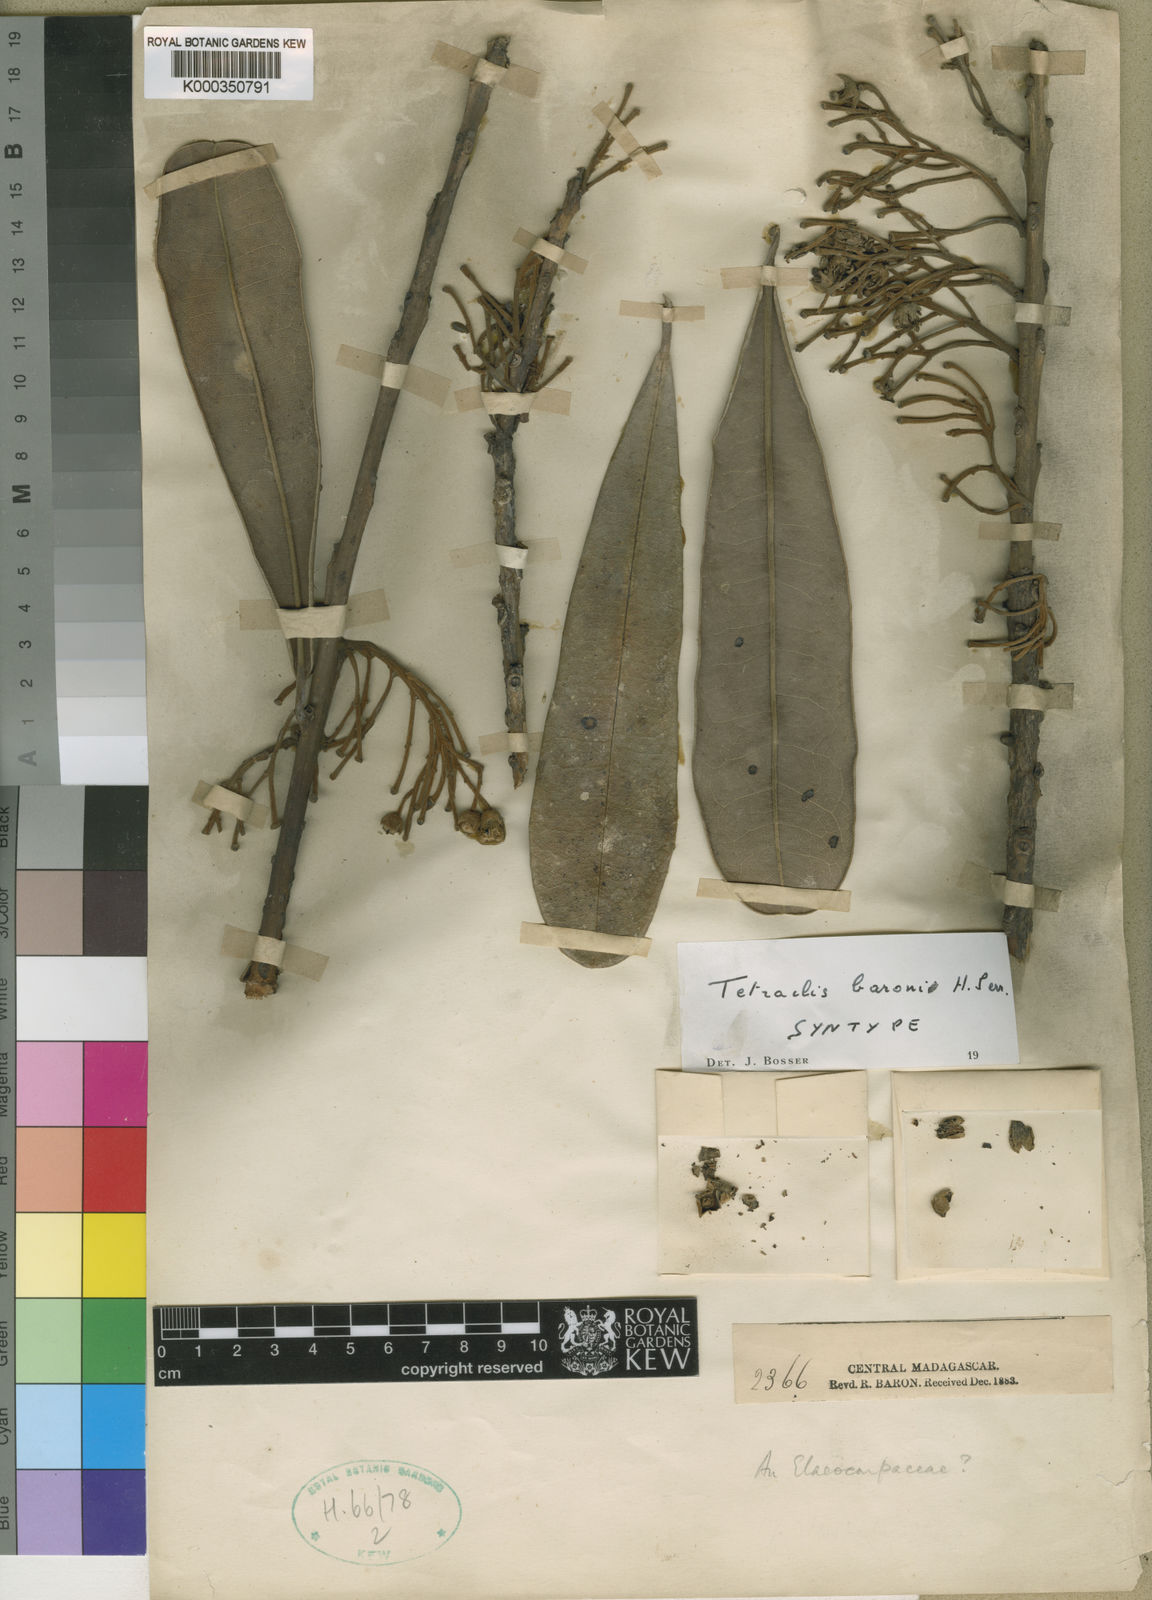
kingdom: Plantae
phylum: Tracheophyta
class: Magnoliopsida
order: Ericales
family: Ebenaceae
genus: Diospyros
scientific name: Diospyros baroniana
